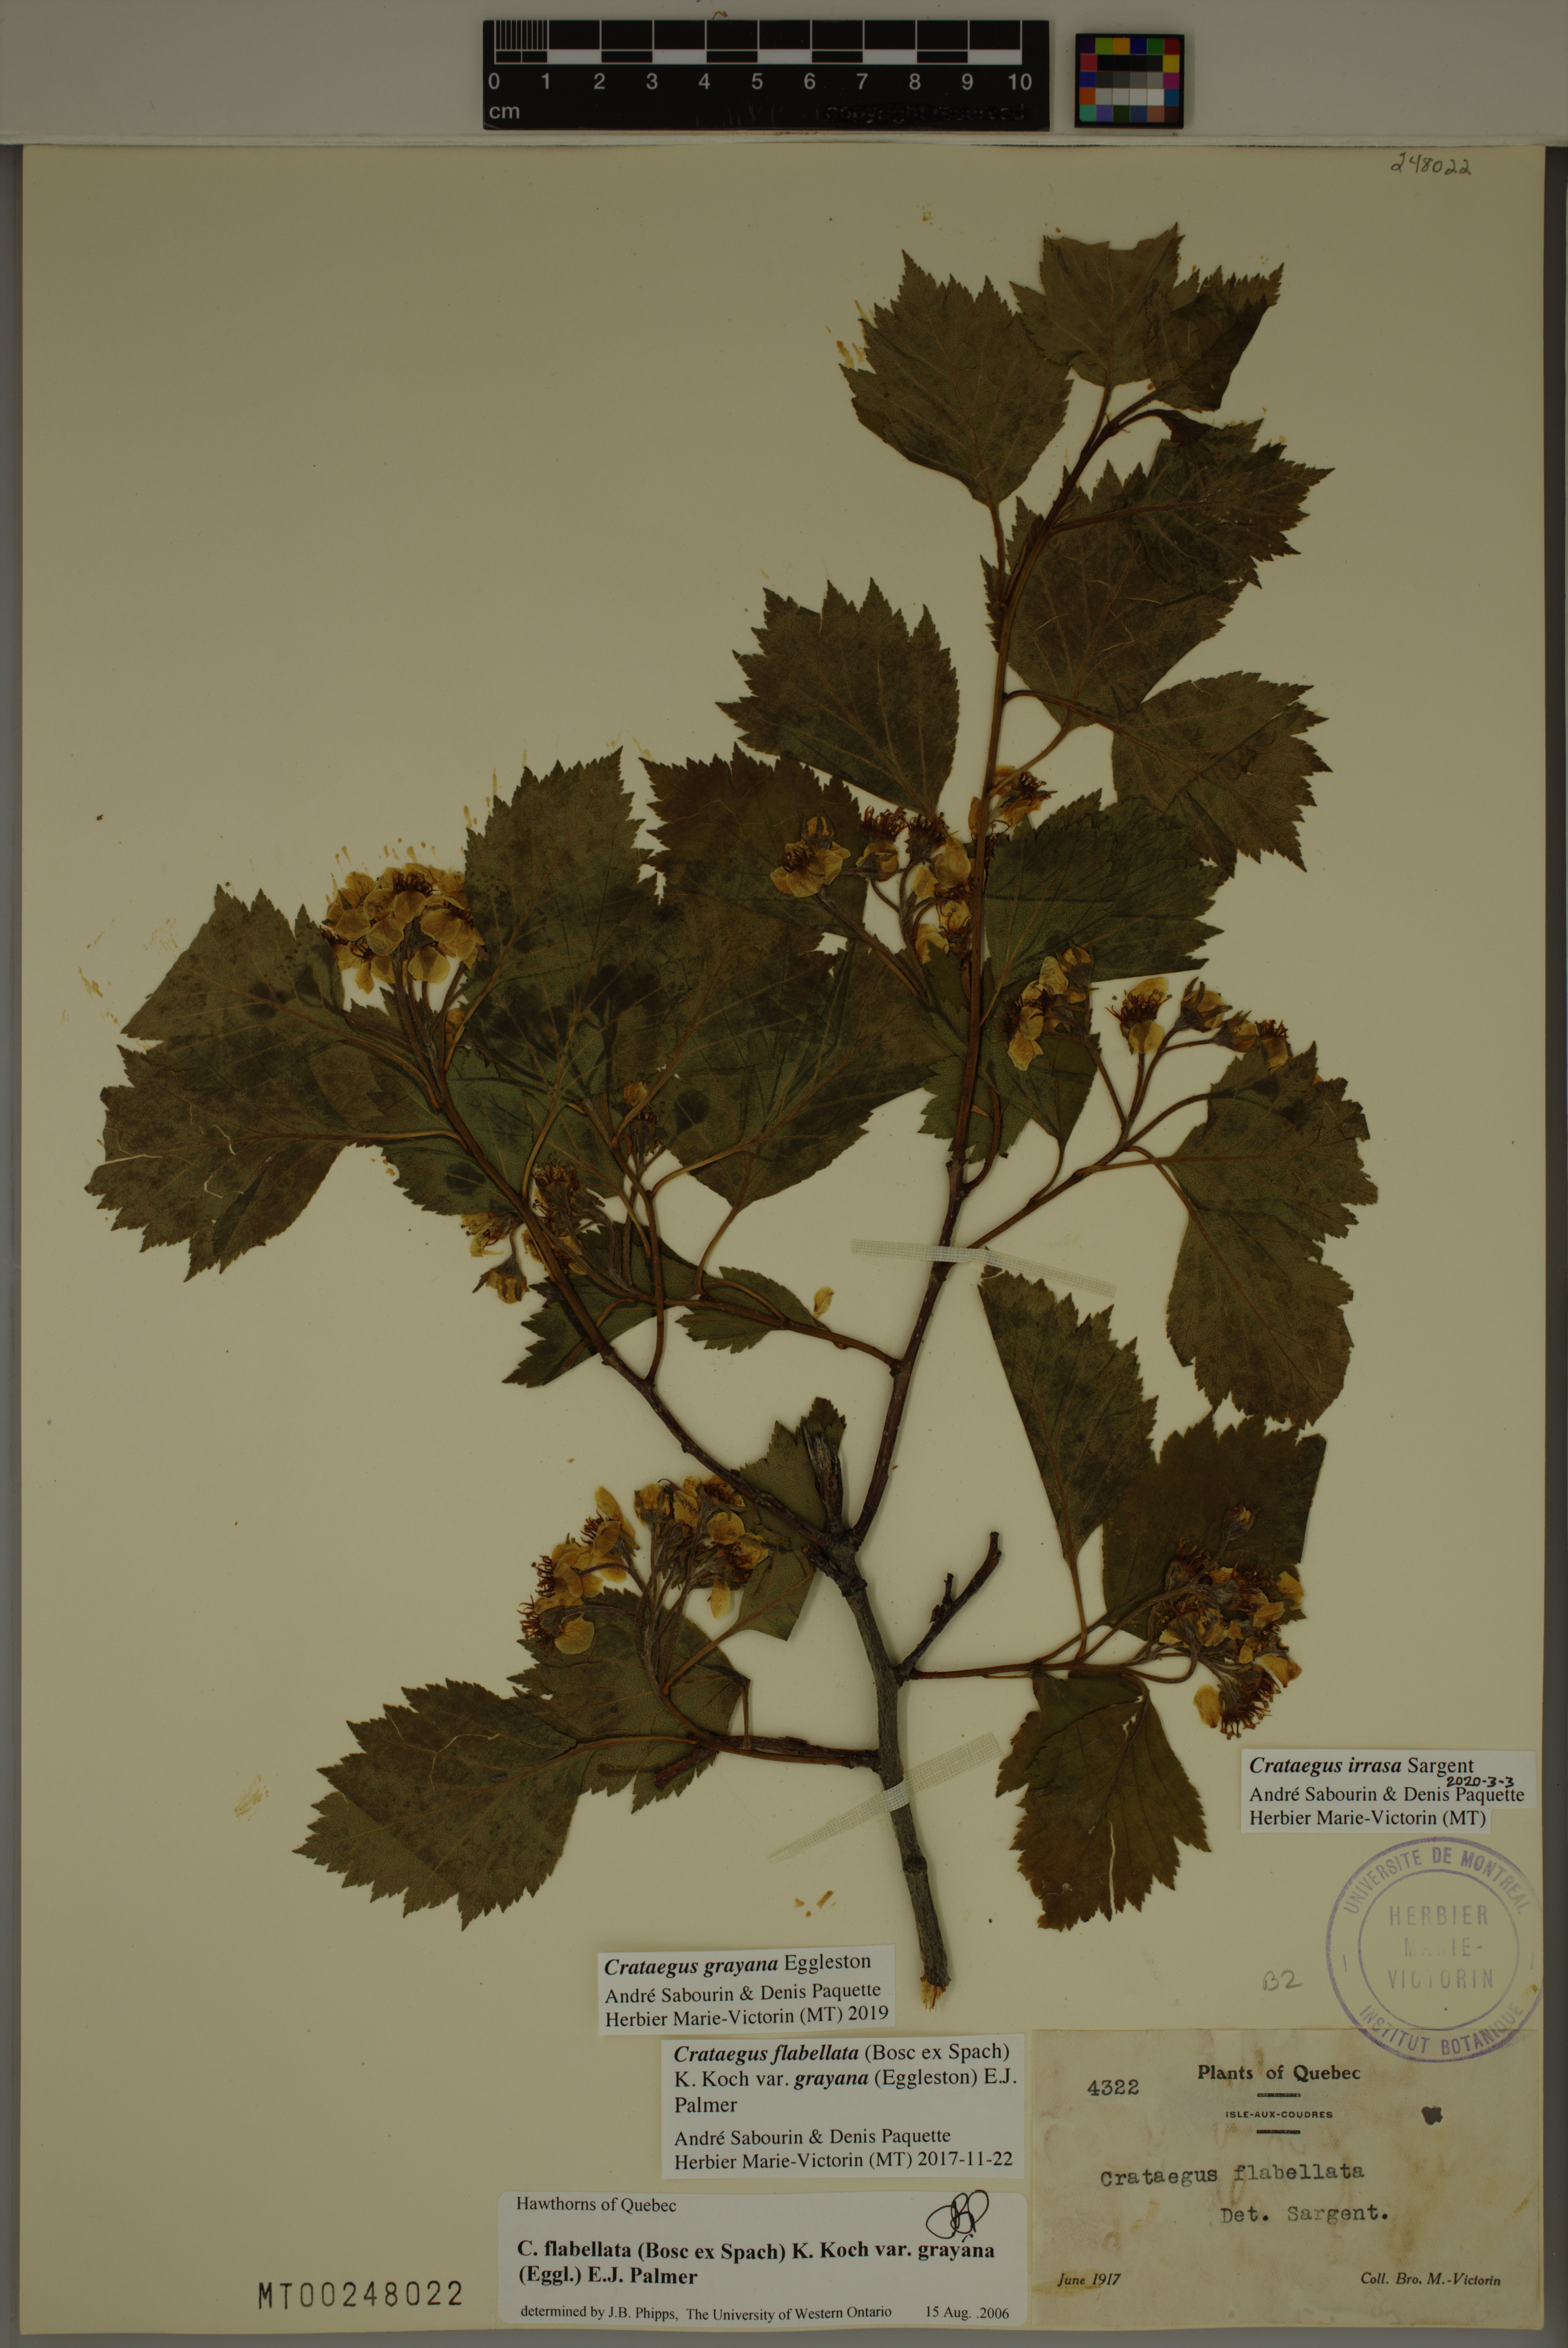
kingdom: Plantae
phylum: Tracheophyta
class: Magnoliopsida
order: Rosales
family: Rosaceae
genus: Crataegus
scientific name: Crataegus irrasa
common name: Unshorn hawthorn
